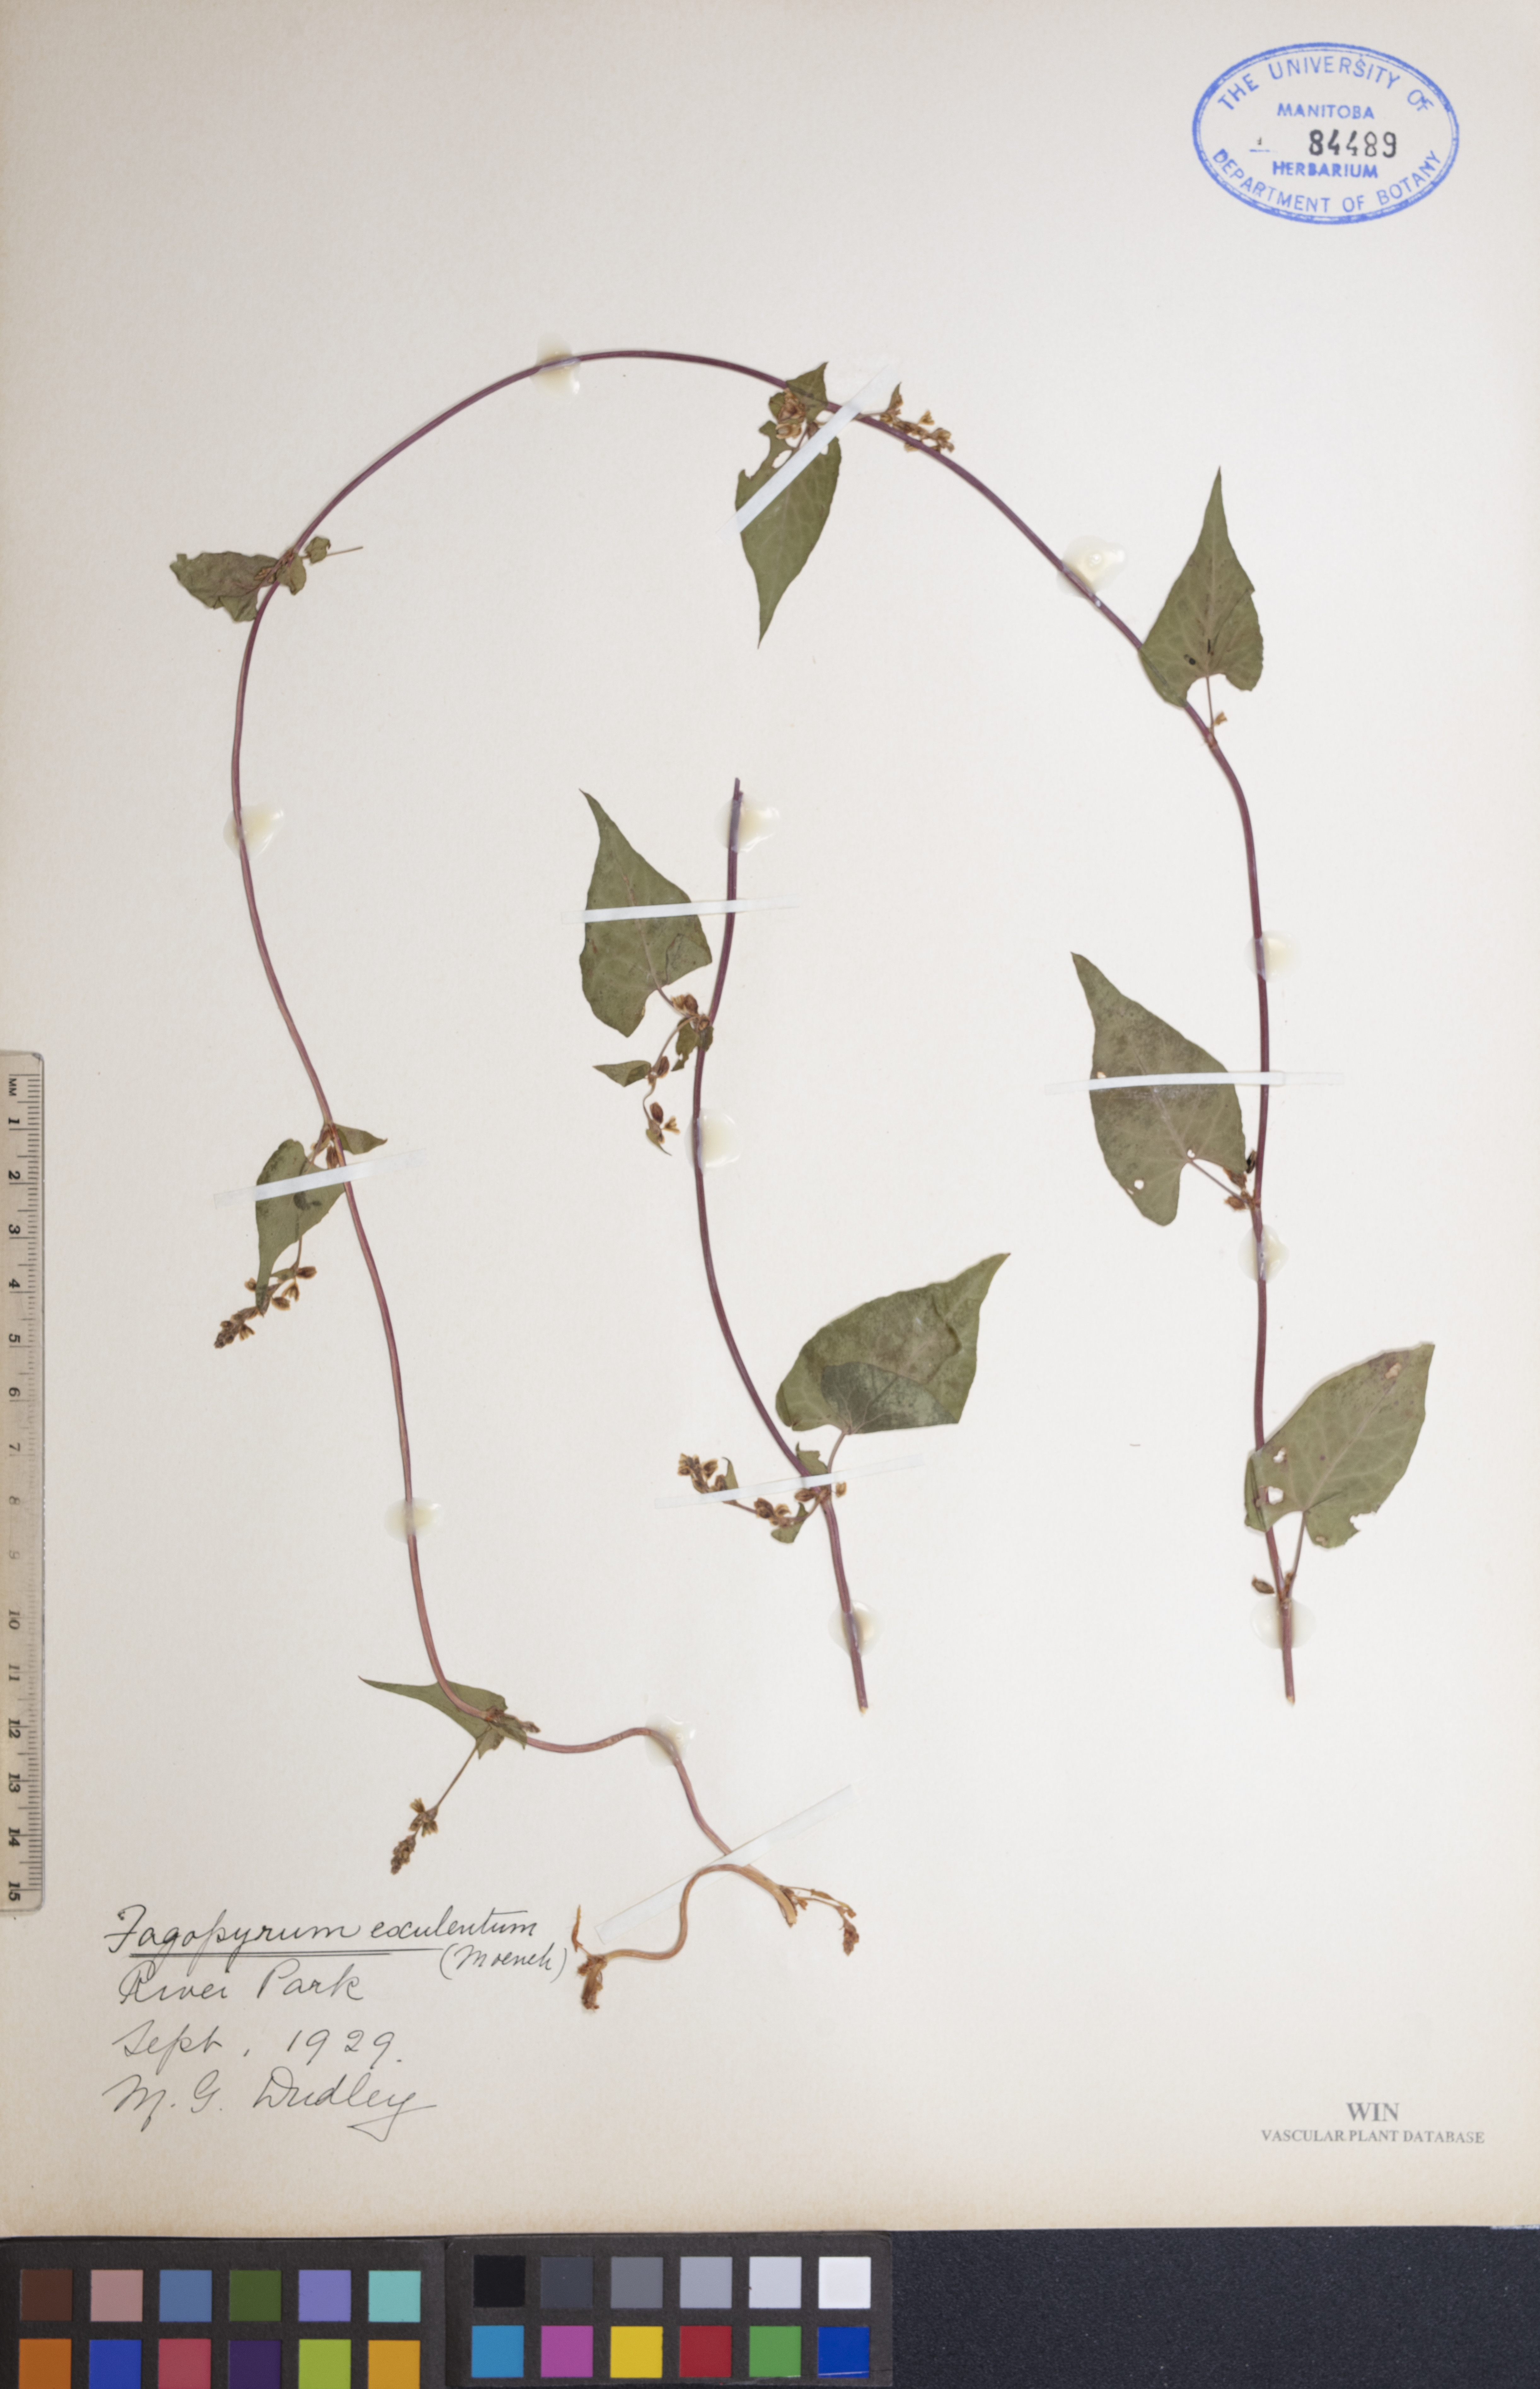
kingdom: Plantae
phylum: Tracheophyta
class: Magnoliopsida
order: Caryophyllales
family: Polygonaceae
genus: Fagopyrum
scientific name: Fagopyrum esculentum
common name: Buckwheat
